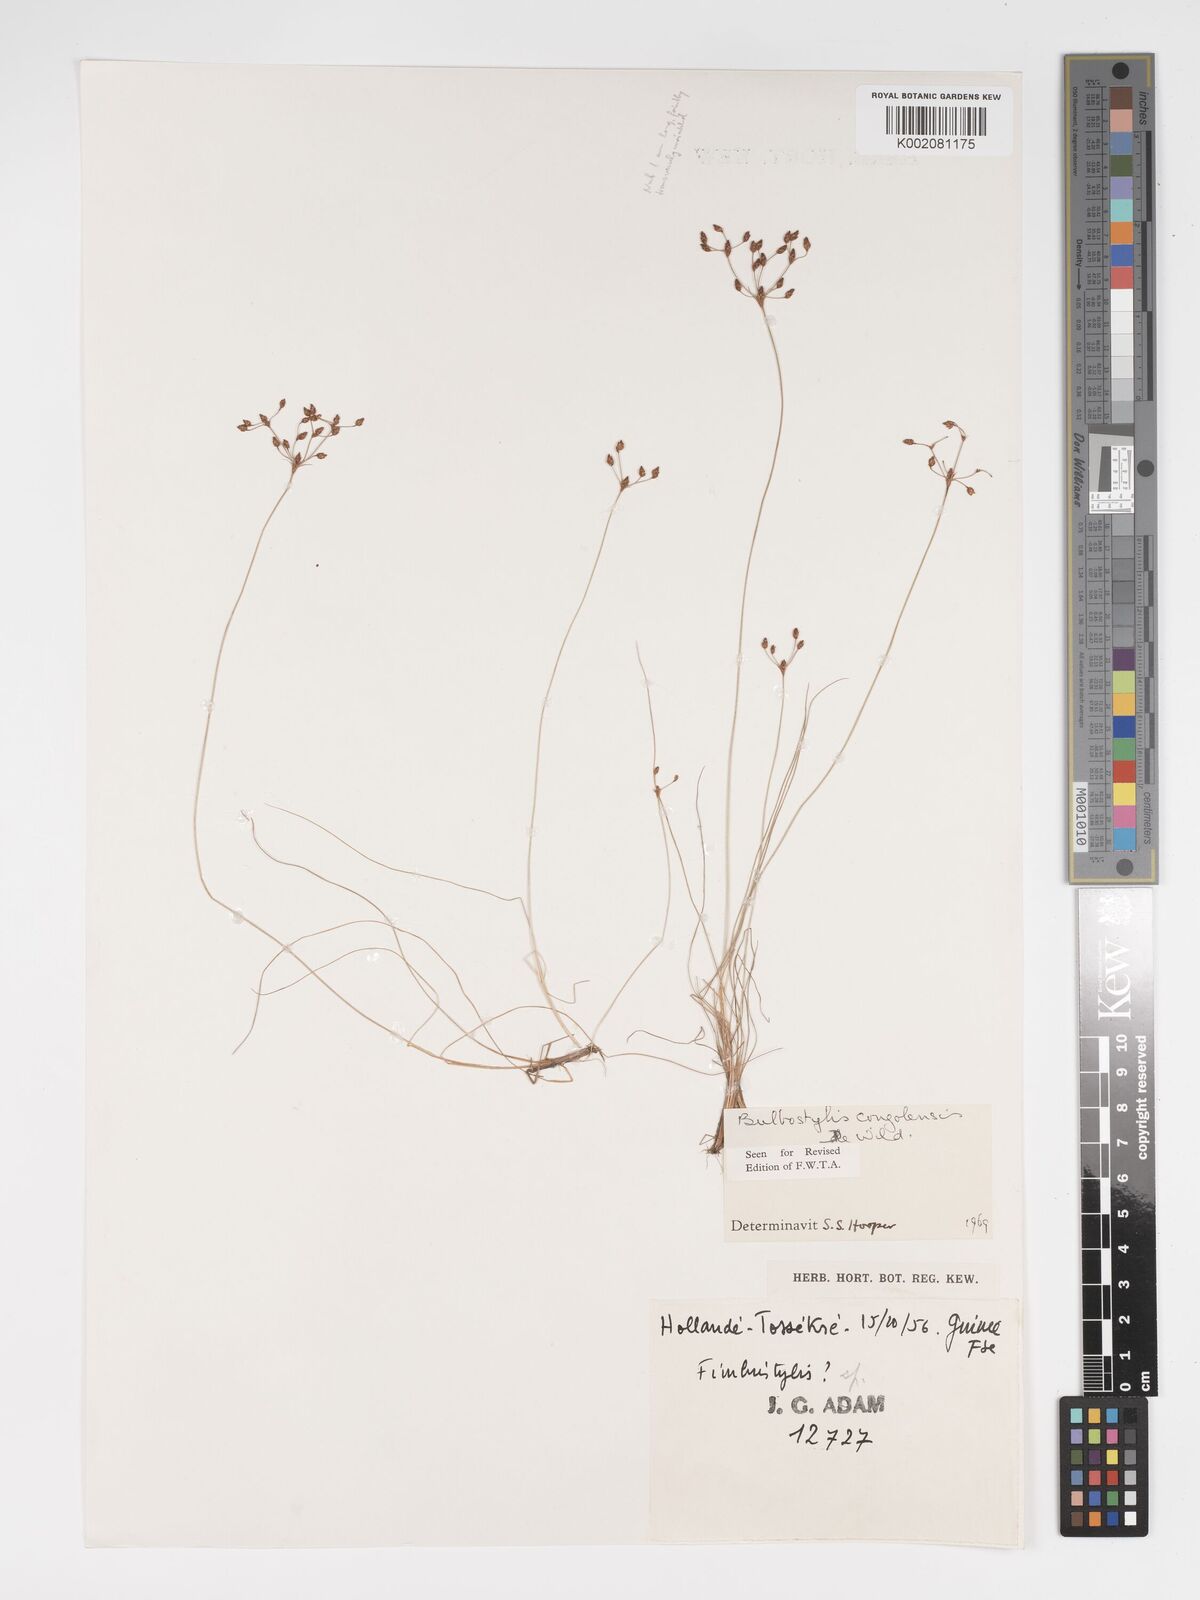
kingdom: Plantae
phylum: Tracheophyta
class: Liliopsida
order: Poales
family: Cyperaceae
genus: Bulbostylis
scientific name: Bulbostylis congolensis
